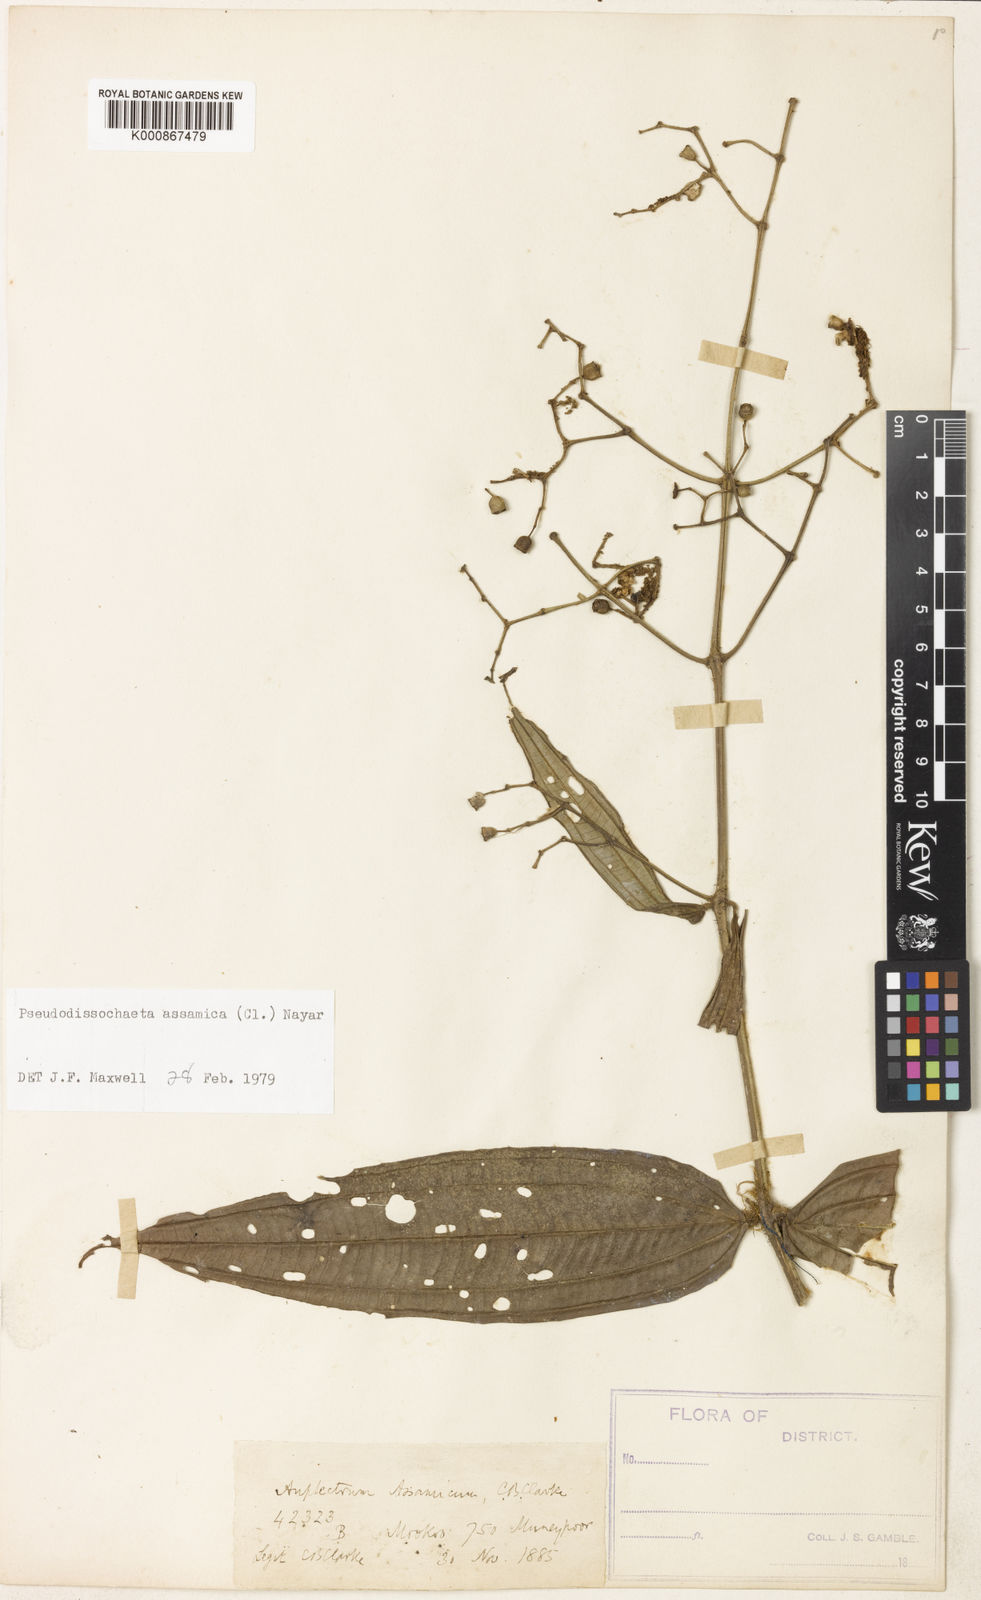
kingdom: Plantae
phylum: Tracheophyta
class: Magnoliopsida
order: Myrtales
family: Melastomataceae
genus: Pseudodissochaeta
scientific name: Pseudodissochaeta assamica
